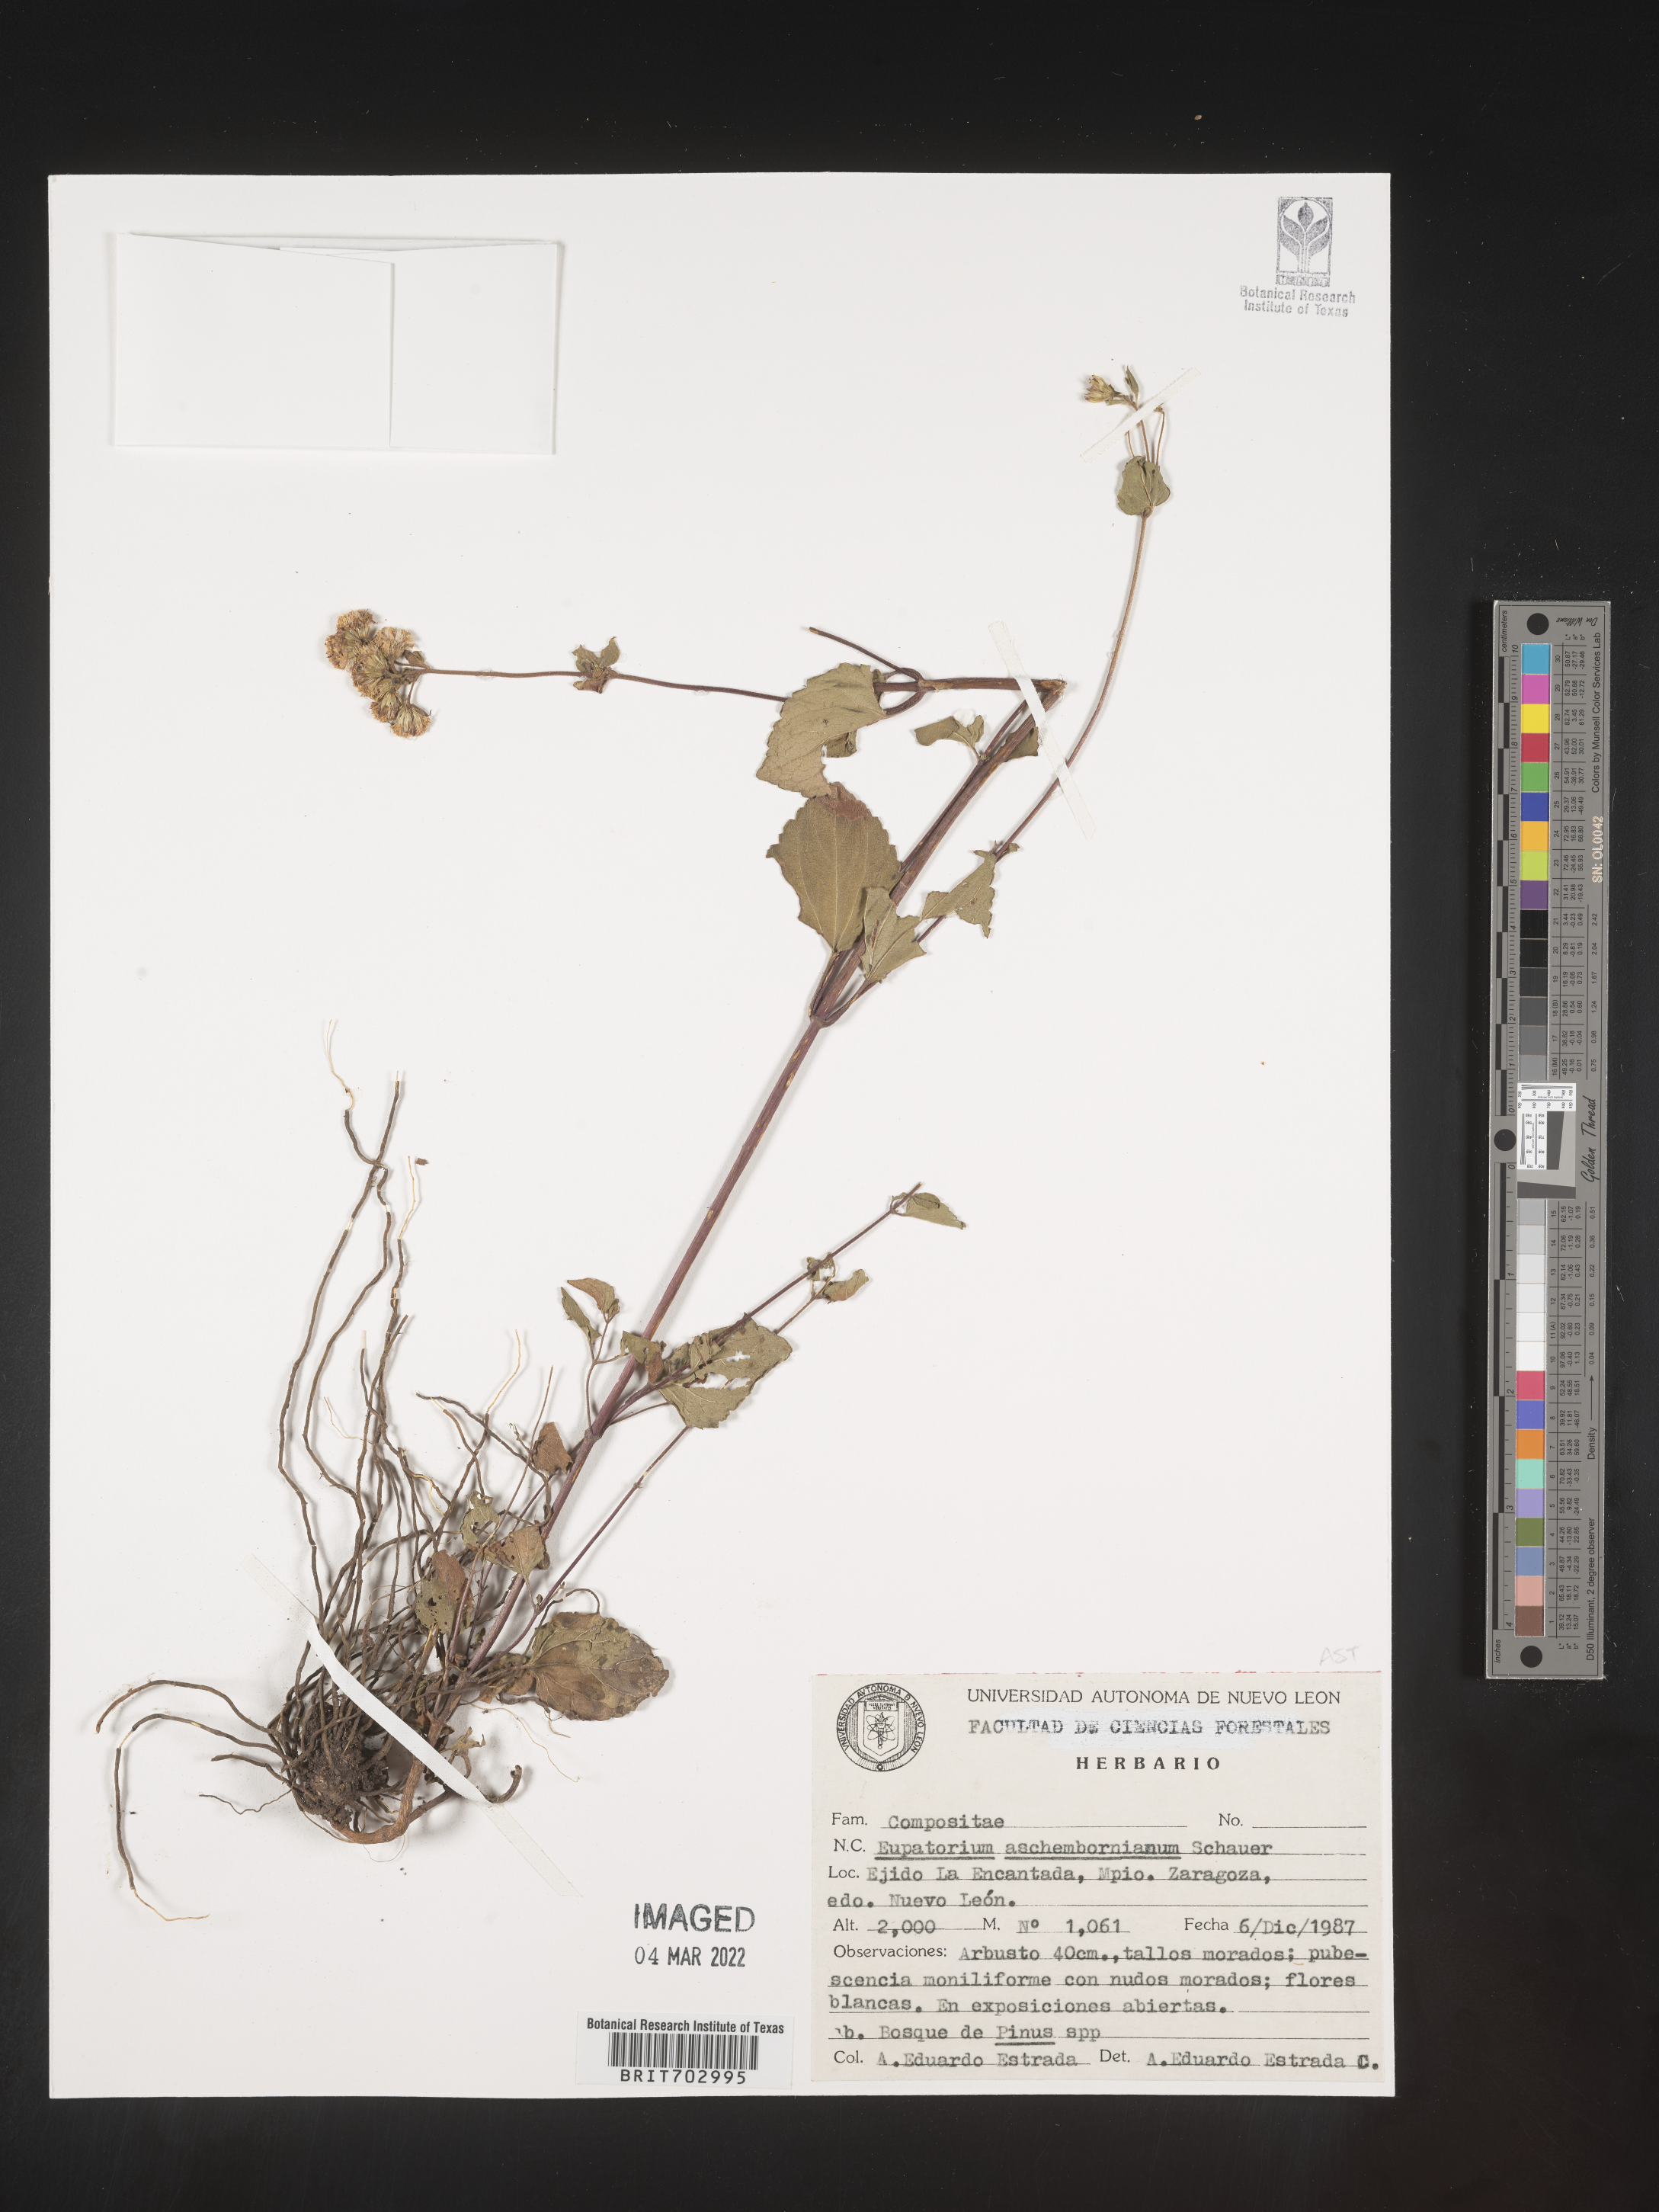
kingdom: Plantae
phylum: Tracheophyta
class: Magnoliopsida
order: Asterales
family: Asteraceae
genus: Eupatorium
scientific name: Eupatorium
